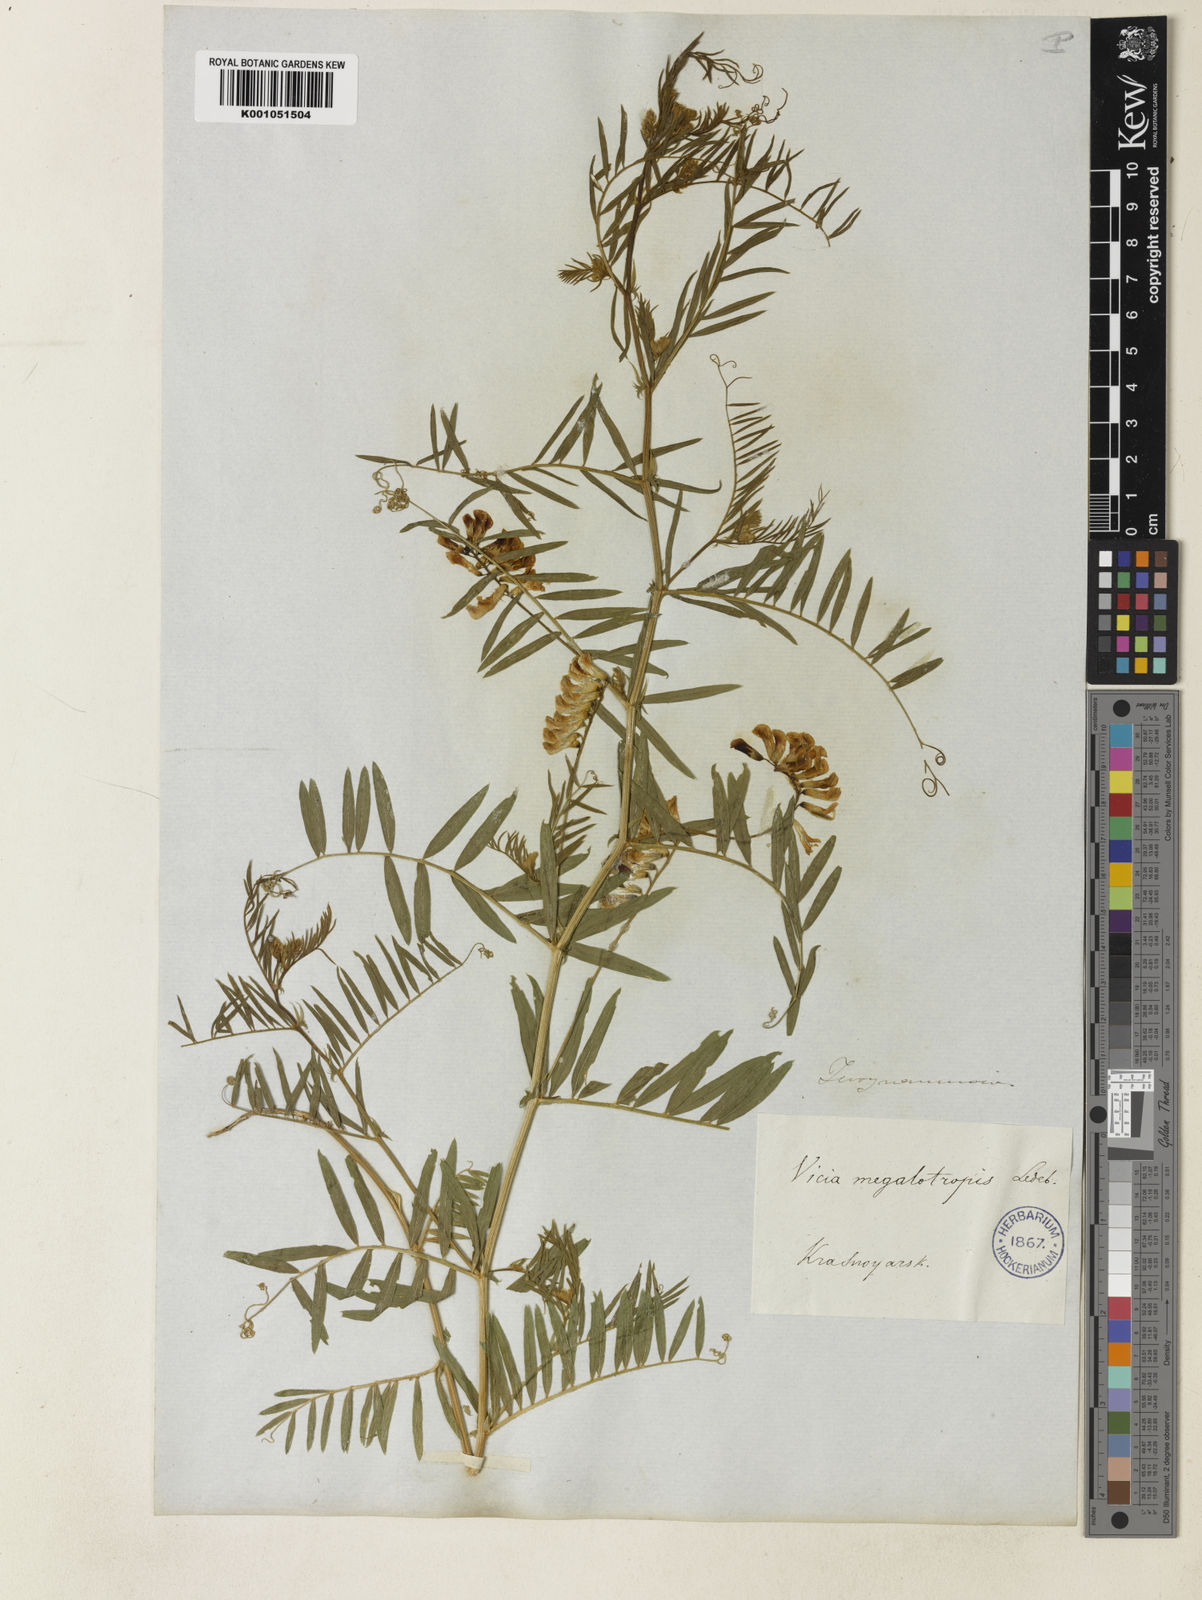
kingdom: Plantae
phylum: Tracheophyta
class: Magnoliopsida
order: Fabales
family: Fabaceae
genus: Vicia
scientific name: Vicia megalotropis
